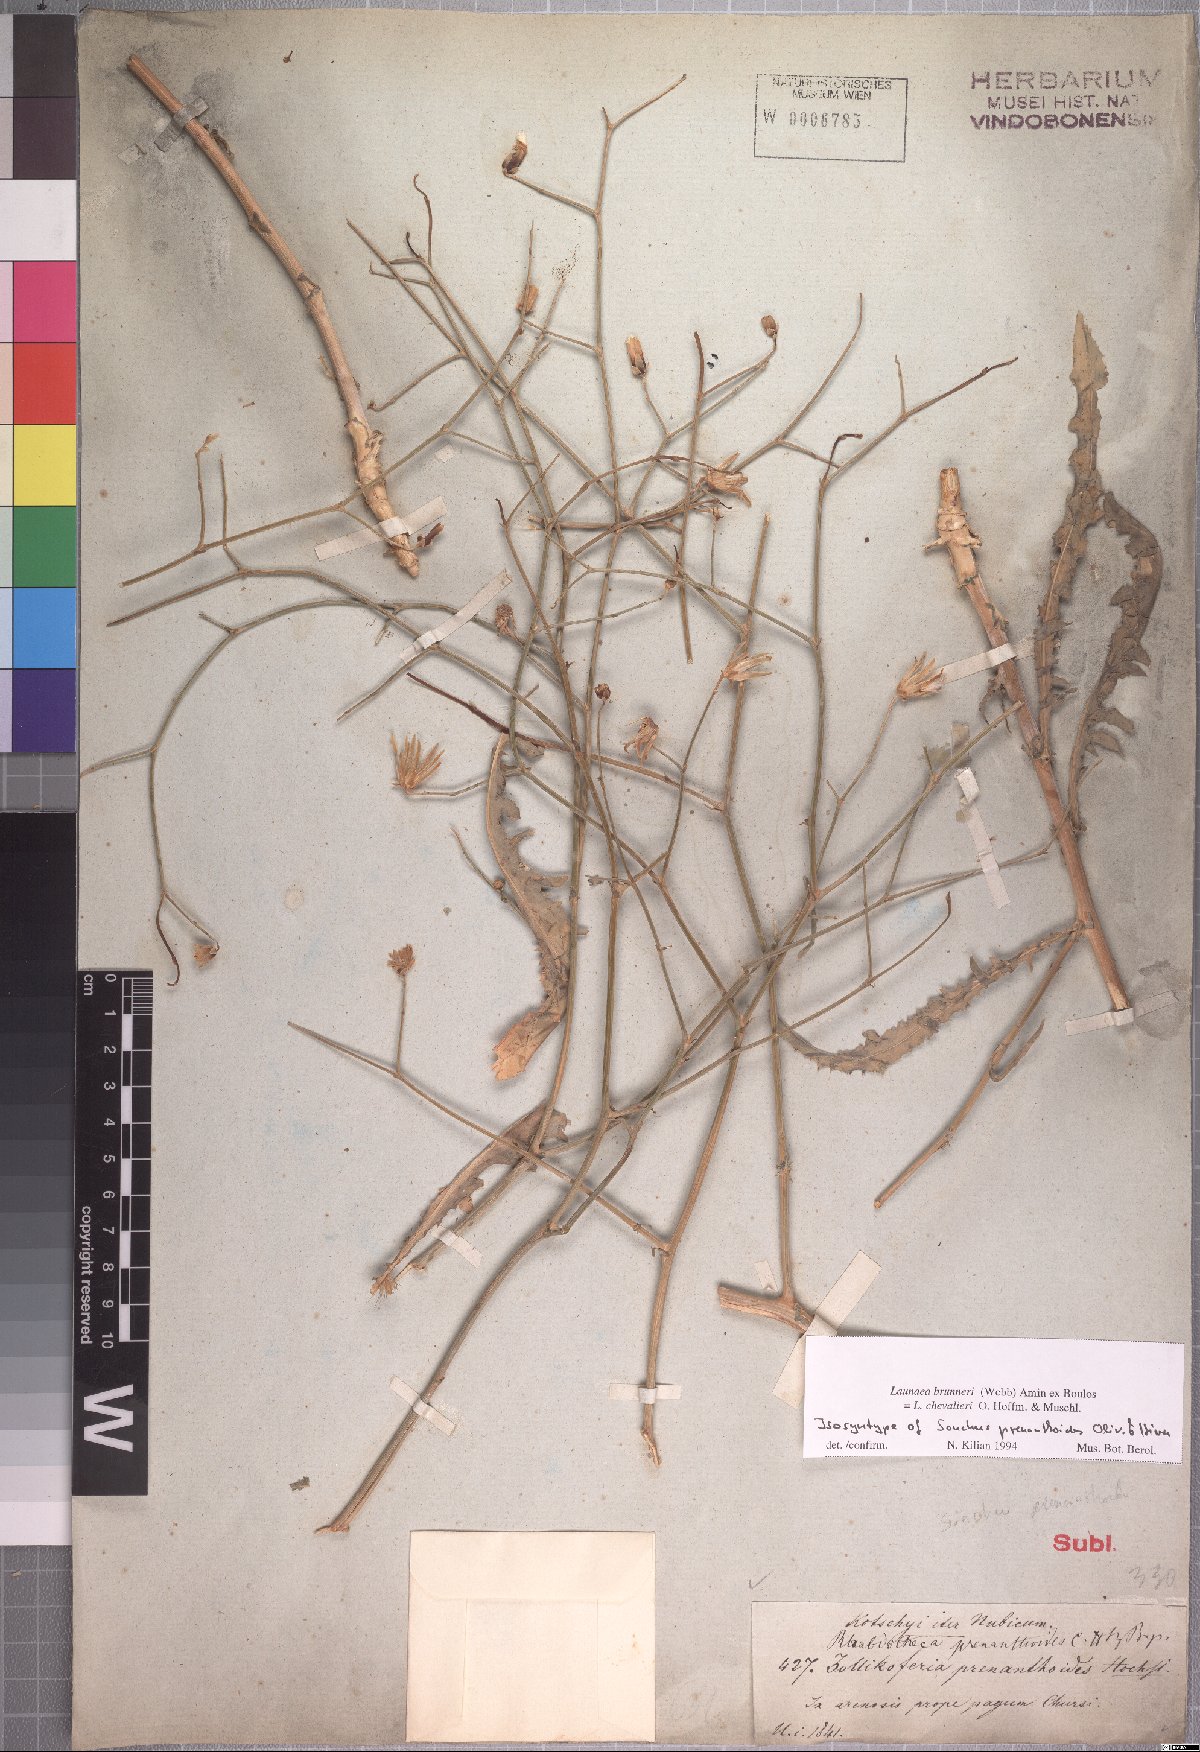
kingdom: Plantae
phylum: Tracheophyta
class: Magnoliopsida
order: Asterales
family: Asteraceae
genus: Launaea
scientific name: Launaea brunneri
